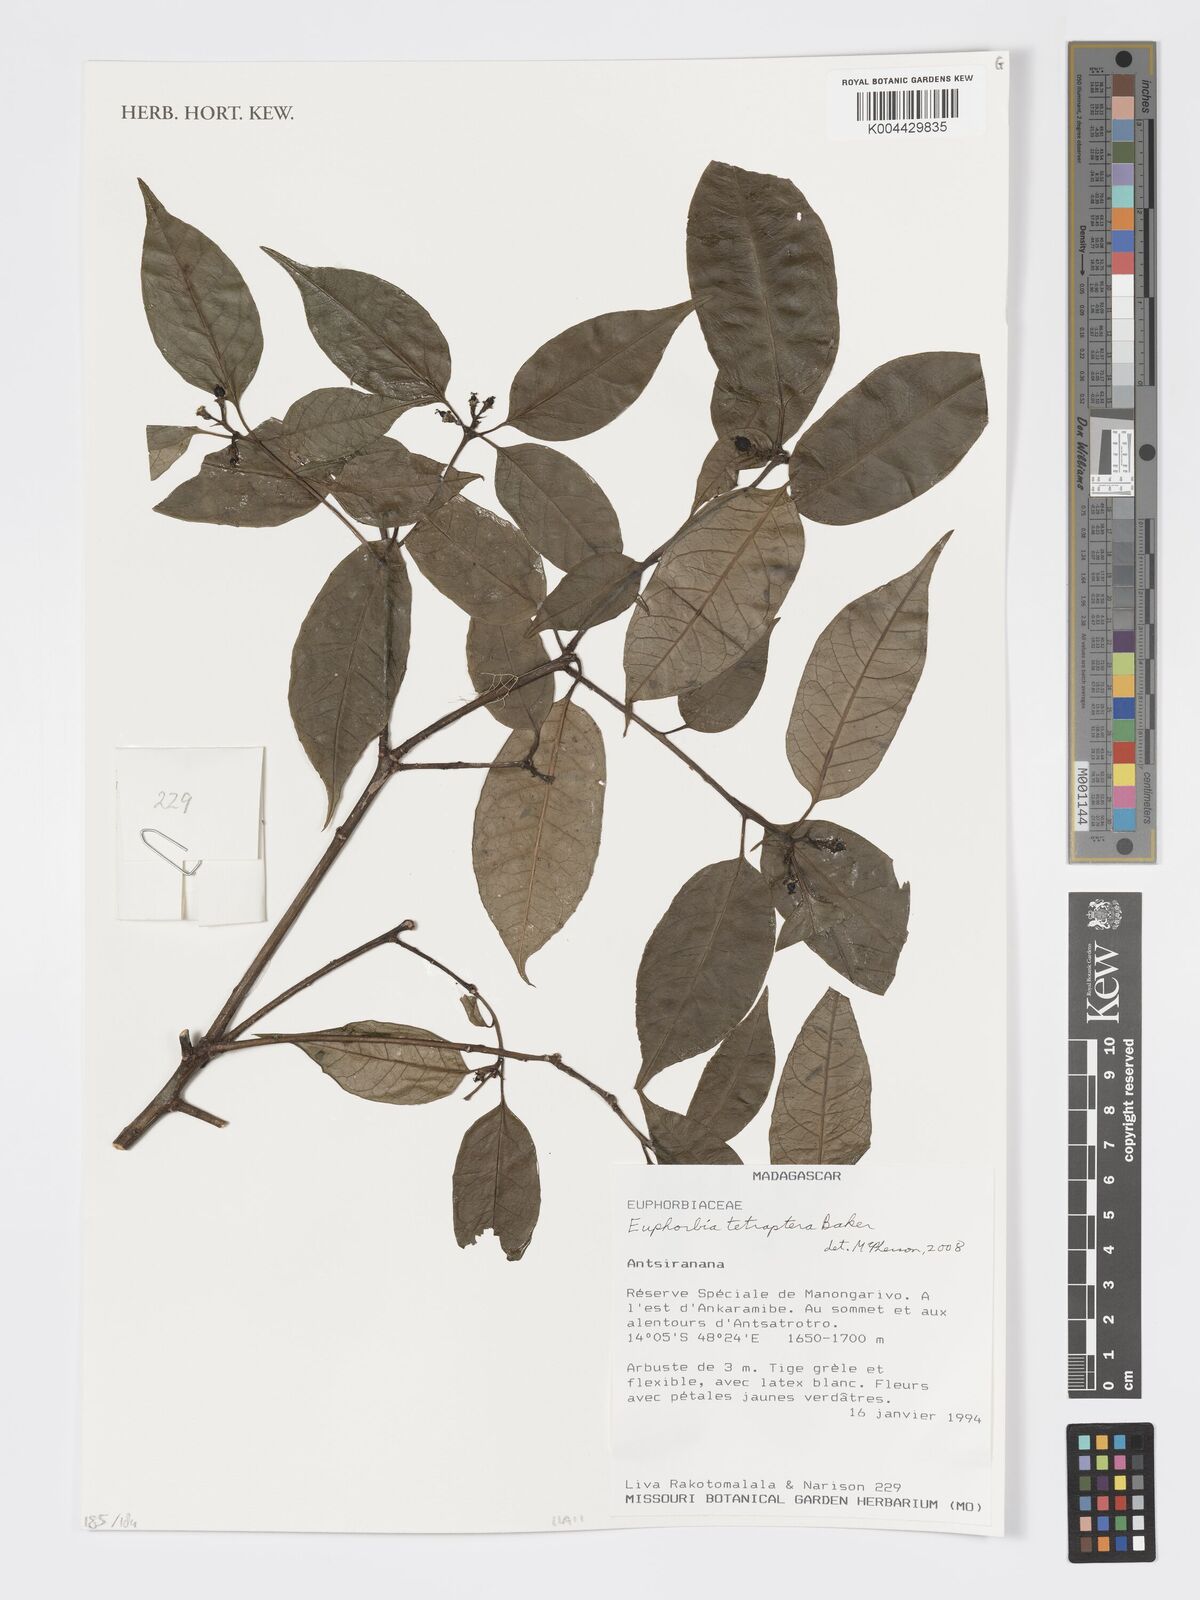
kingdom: Plantae
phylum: Tracheophyta
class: Magnoliopsida
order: Malpighiales
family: Euphorbiaceae
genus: Euphorbia
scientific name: Euphorbia tetraptera
